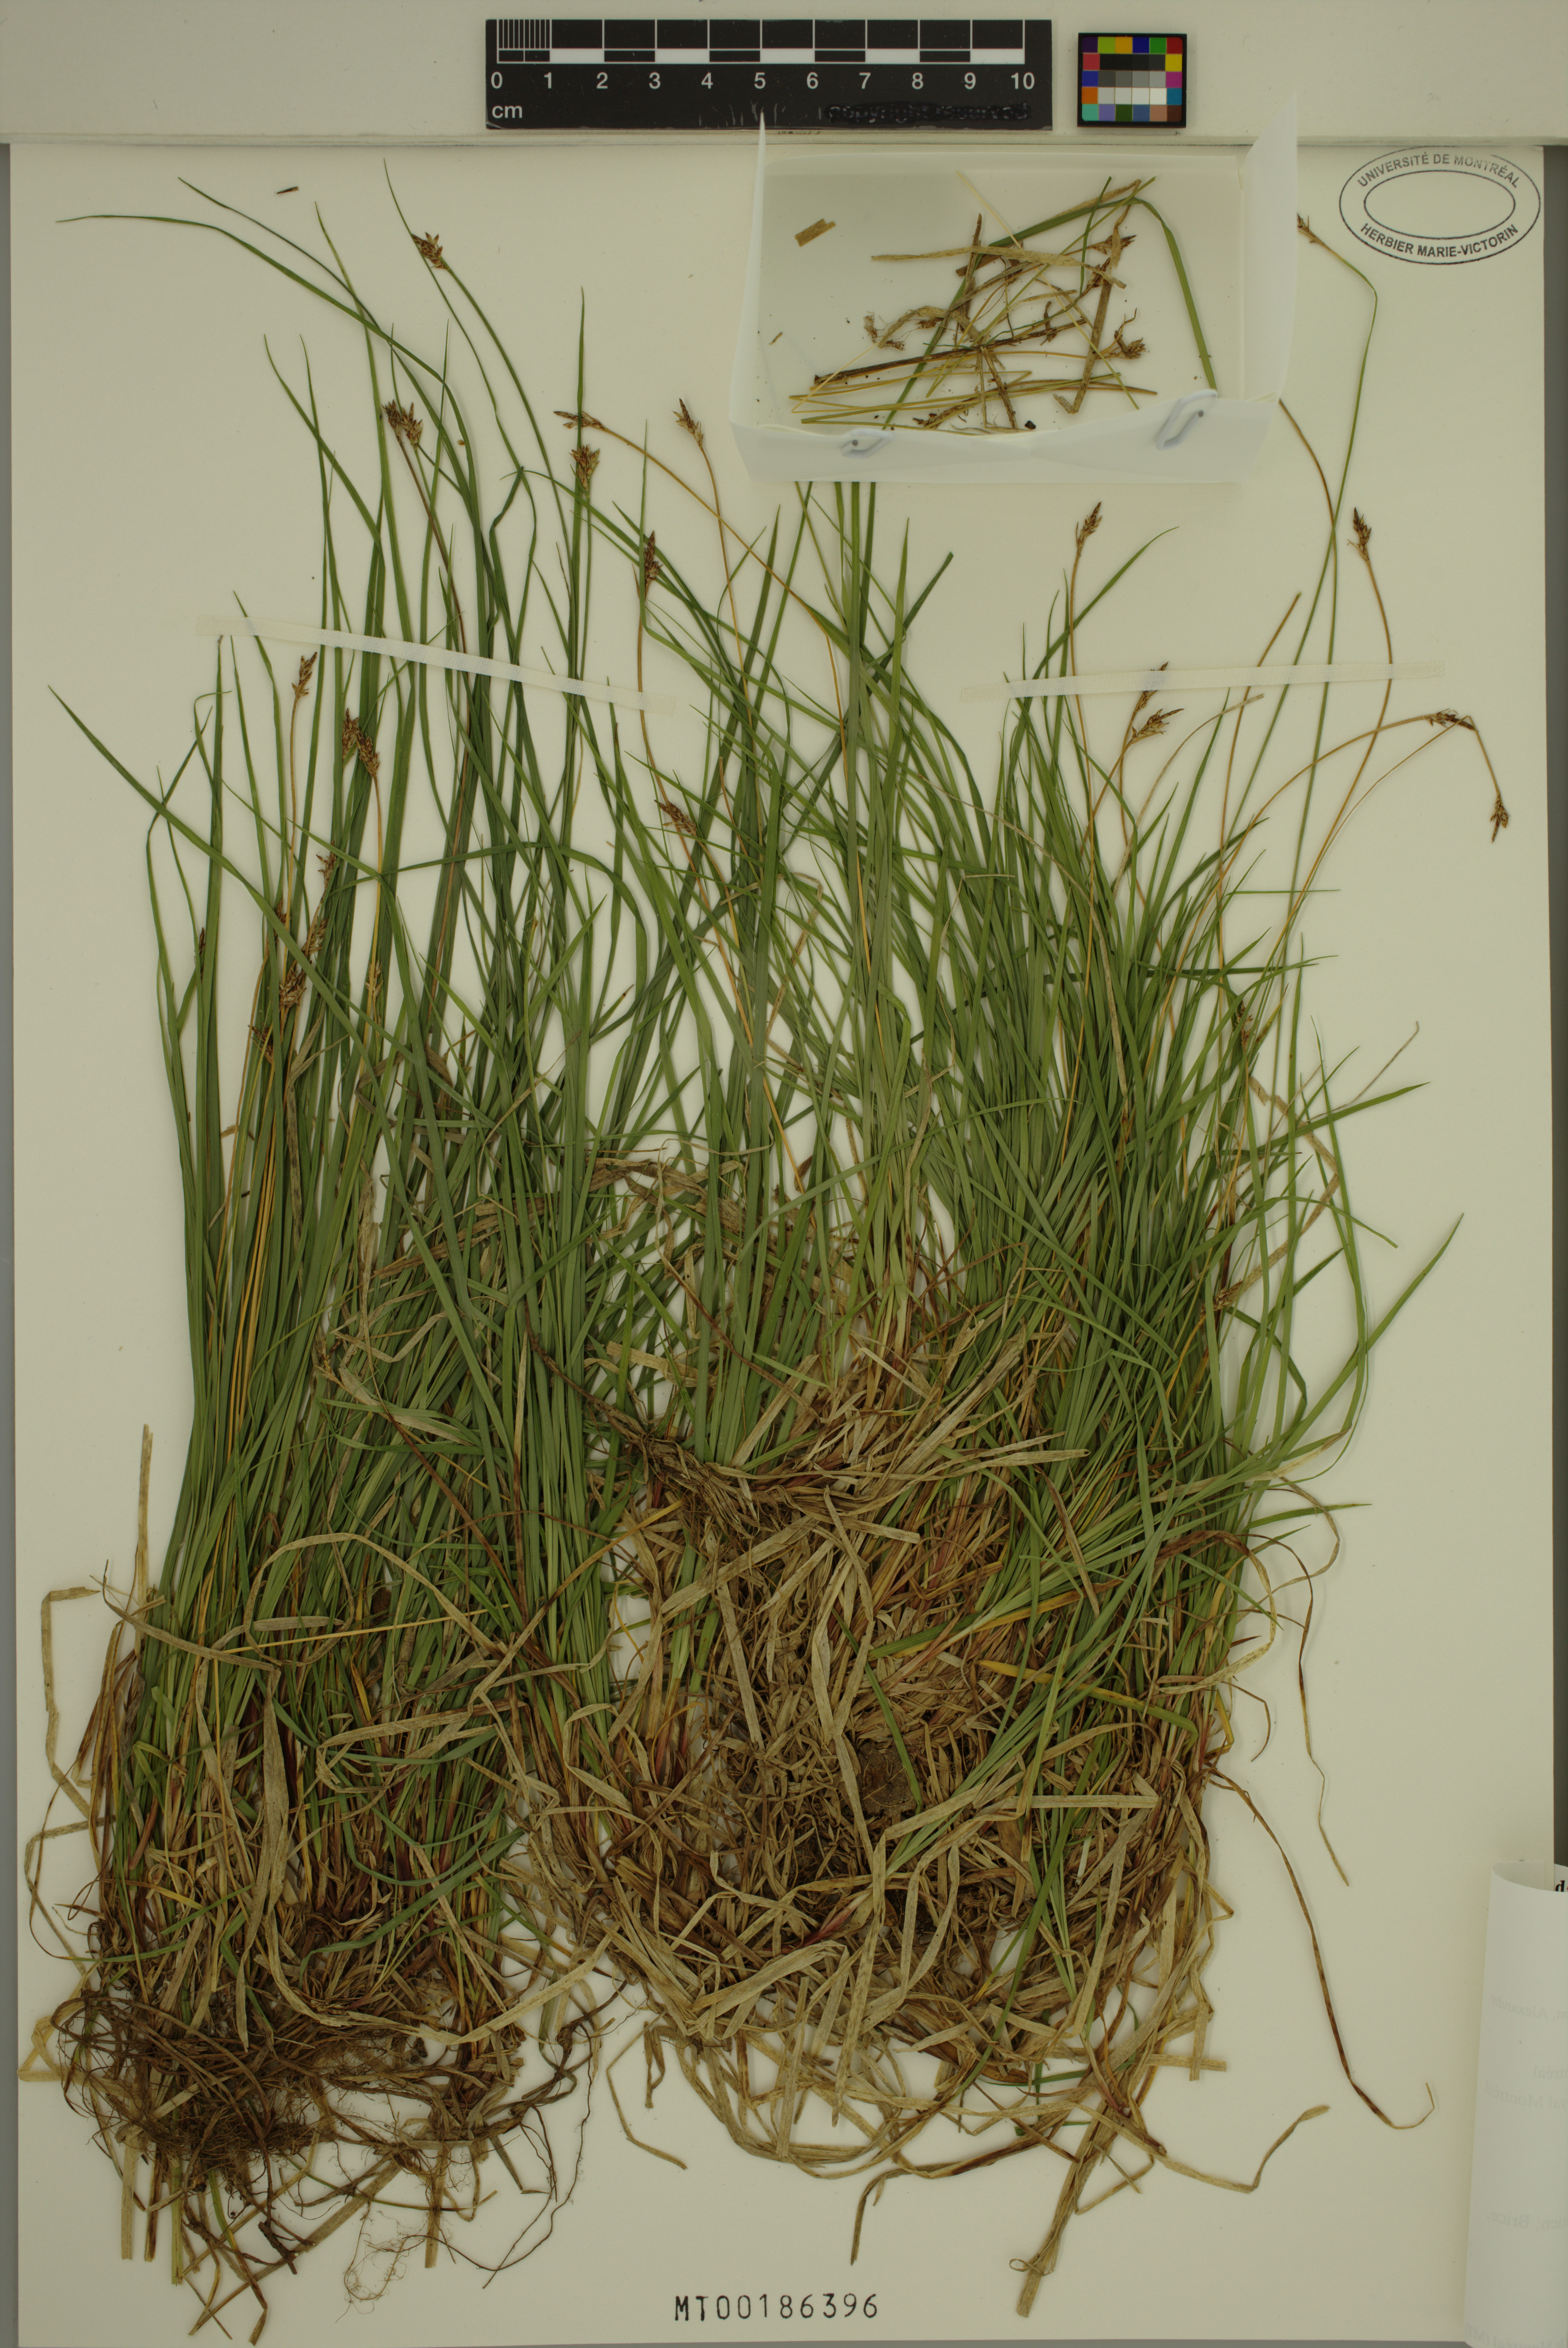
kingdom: Plantae
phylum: Tracheophyta
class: Liliopsida
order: Poales
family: Cyperaceae
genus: Carex
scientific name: Carex peckii
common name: Peck's oak sedge
